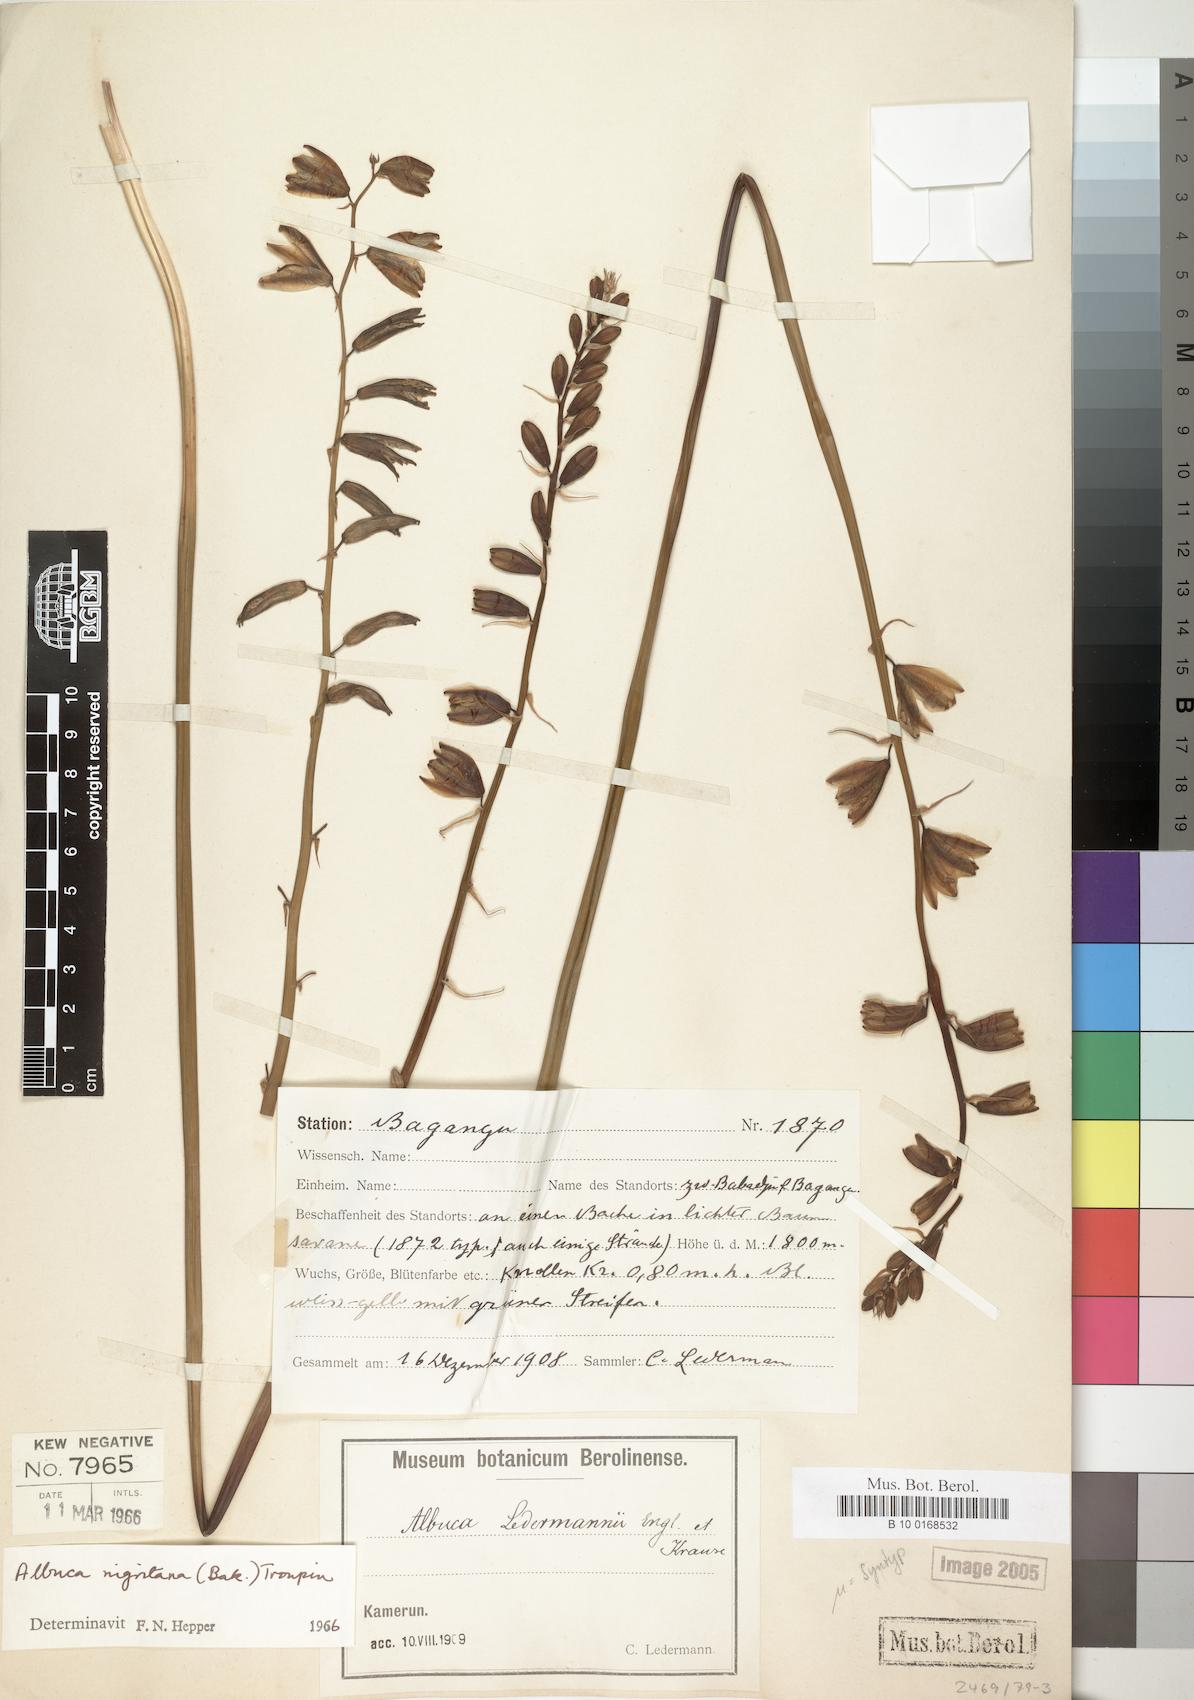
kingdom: Plantae
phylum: Tracheophyta
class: Liliopsida
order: Asparagales
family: Asparagaceae
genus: Albuca
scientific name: Albuca nigritana
